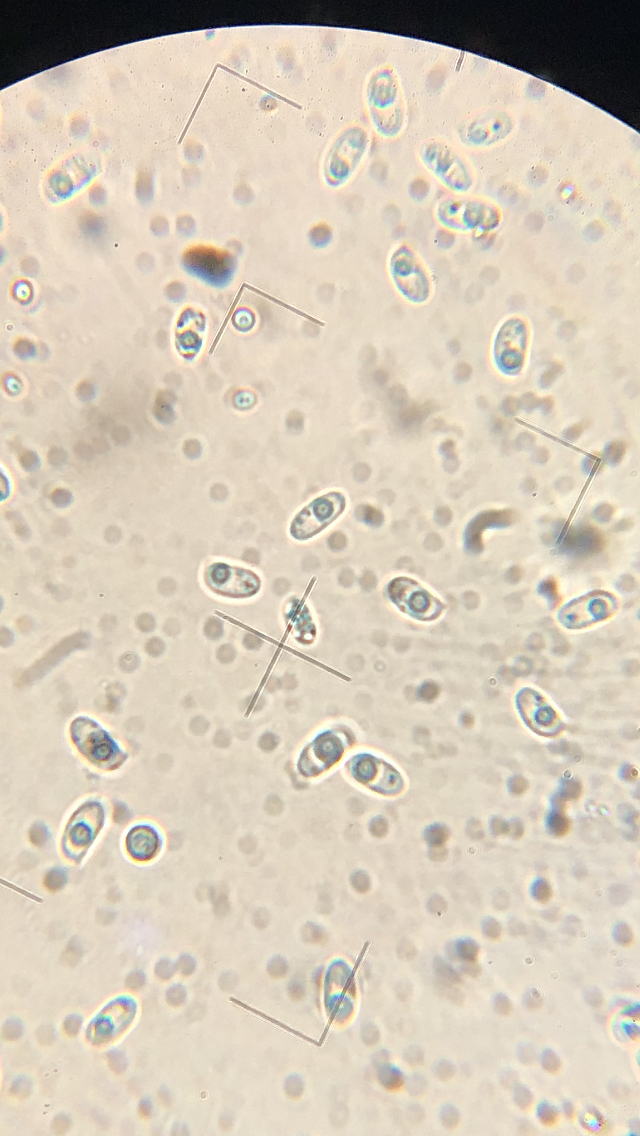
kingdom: Fungi
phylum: Basidiomycota
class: Agaricomycetes
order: Hymenochaetales
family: Hyphodontiaceae
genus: Hyphodontia
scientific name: Hyphodontia quercina
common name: ege-tandsvamp
